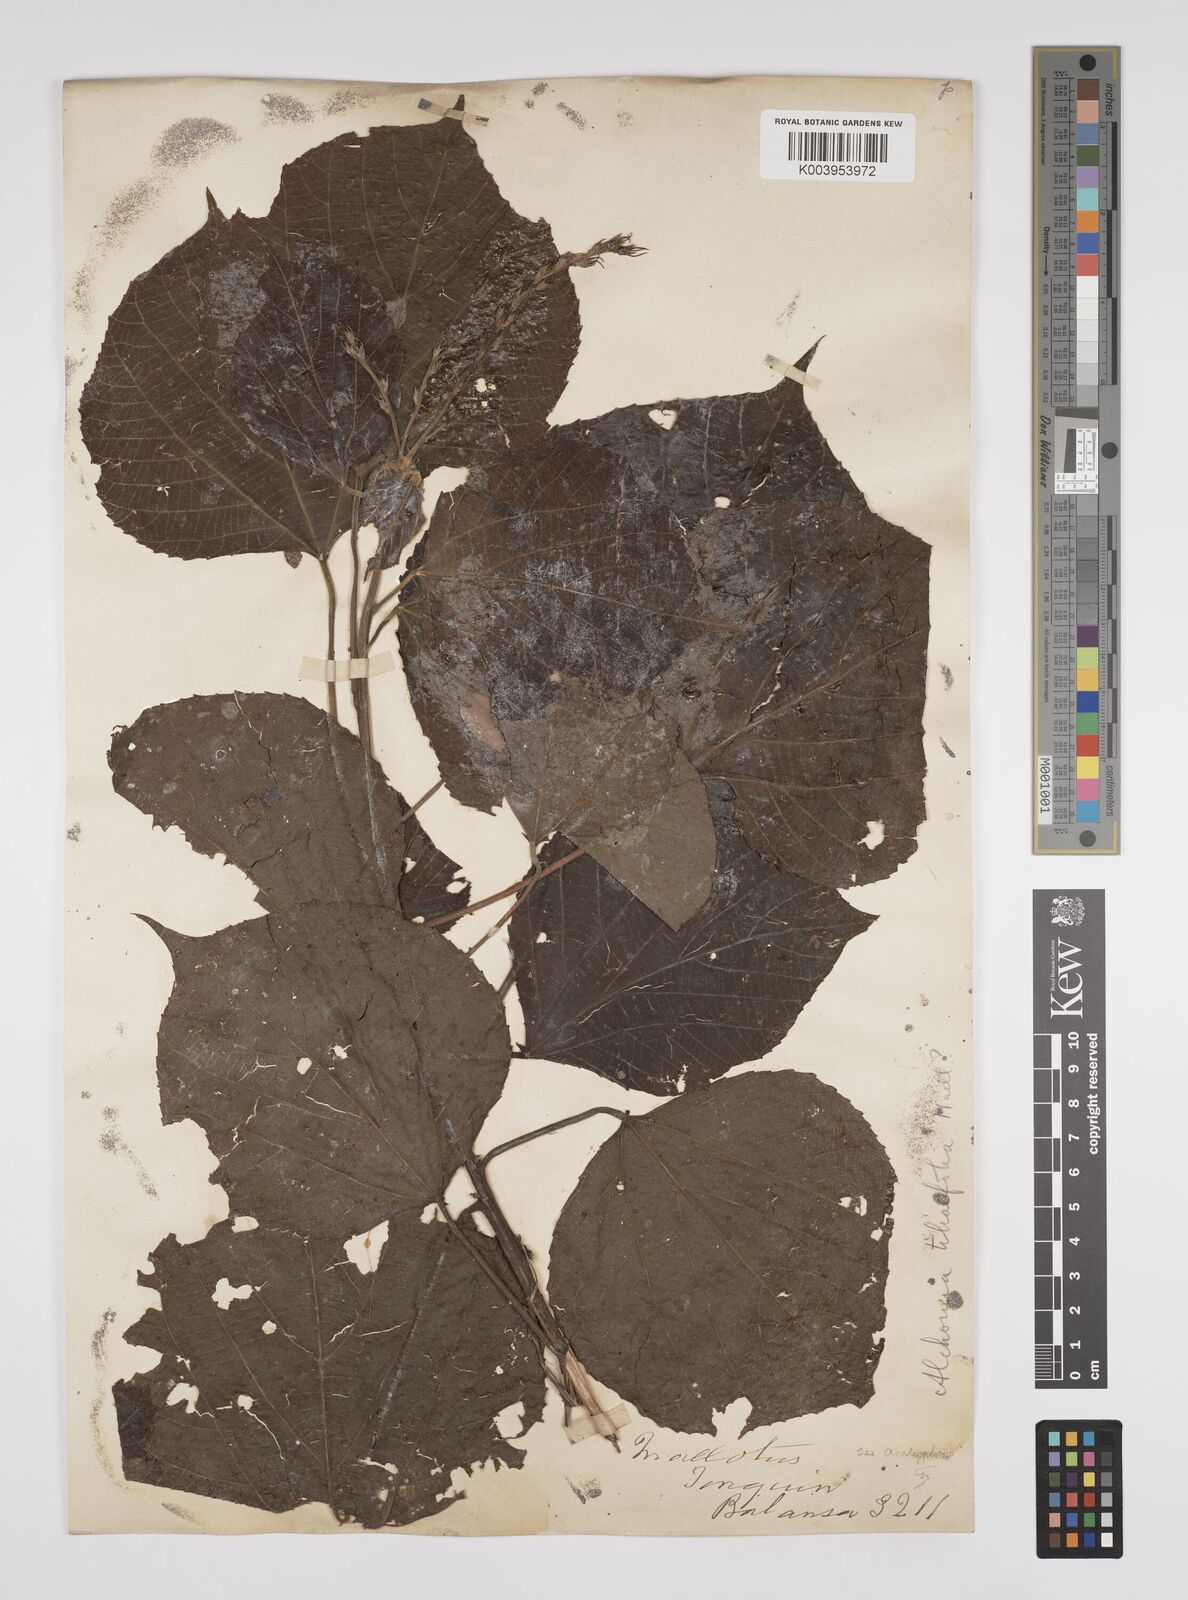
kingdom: Plantae
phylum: Tracheophyta
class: Magnoliopsida
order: Malpighiales
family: Euphorbiaceae
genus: Alchornea
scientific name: Alchornea tiliifolia
